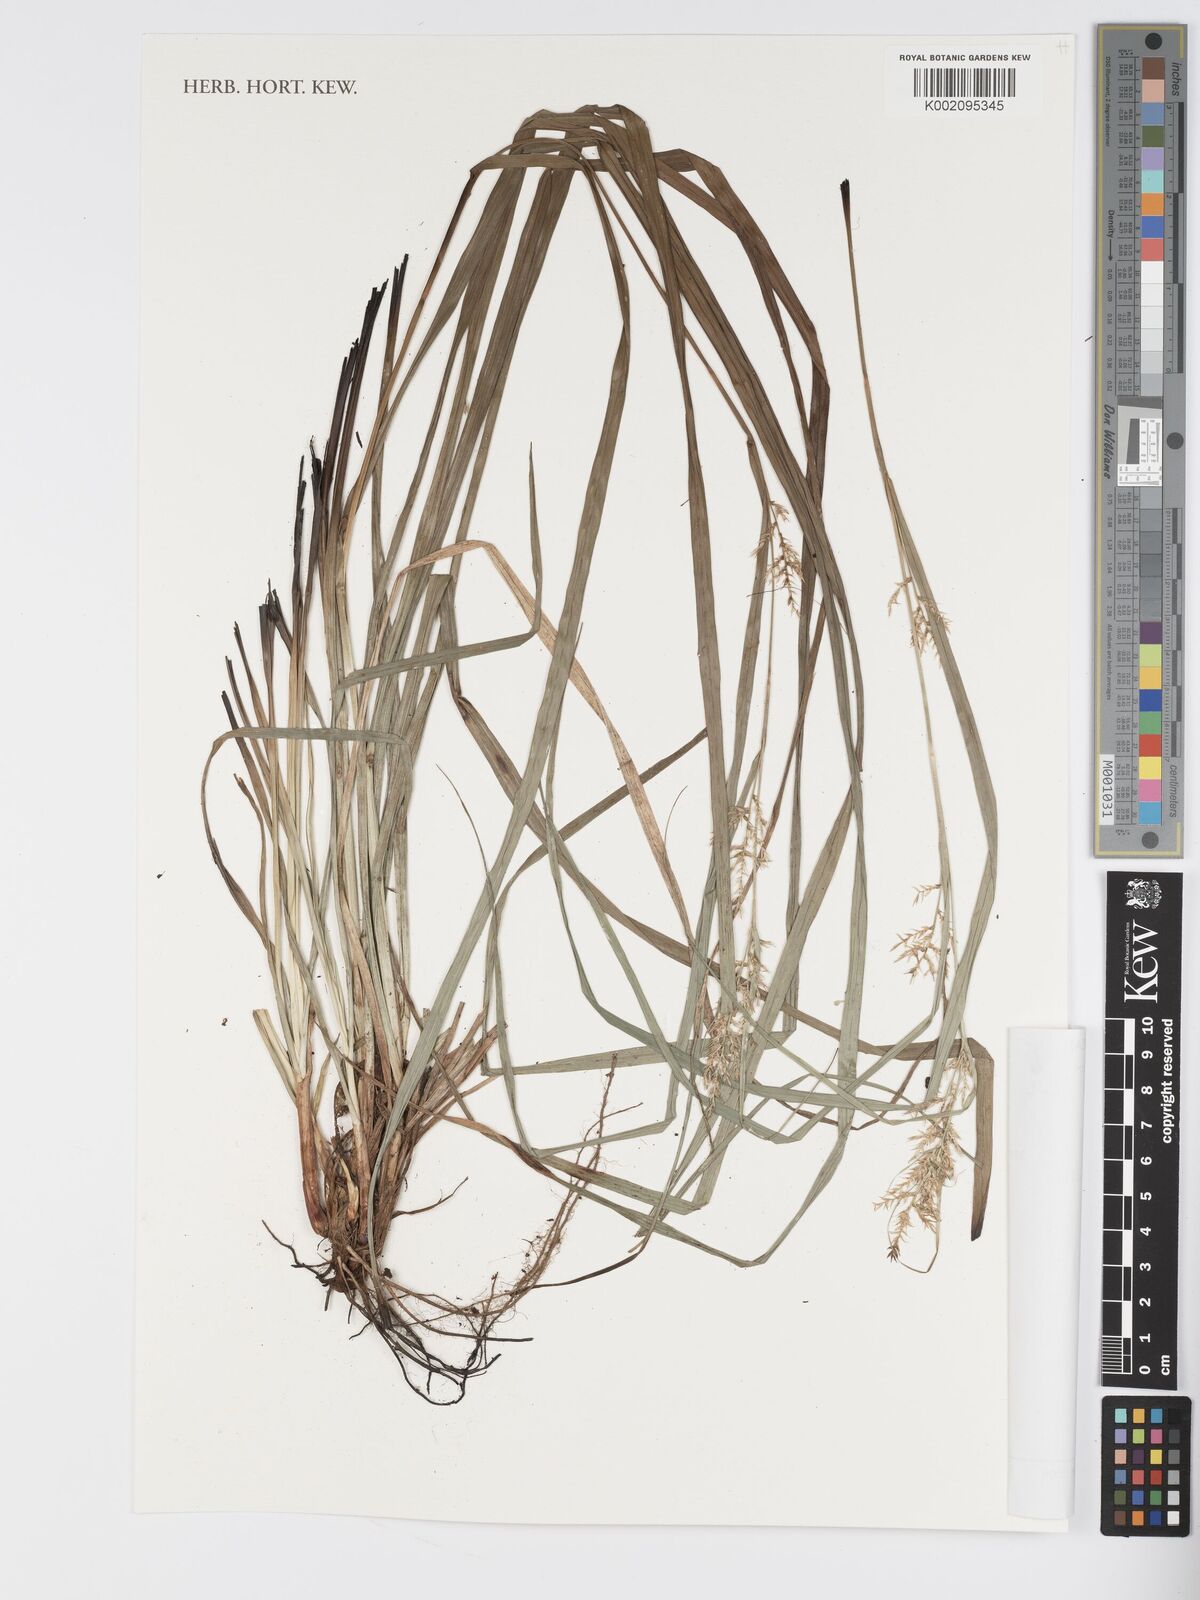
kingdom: Plantae
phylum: Tracheophyta
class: Liliopsida
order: Poales
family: Cyperaceae
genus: Carex
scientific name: Carex chlorosaccus
